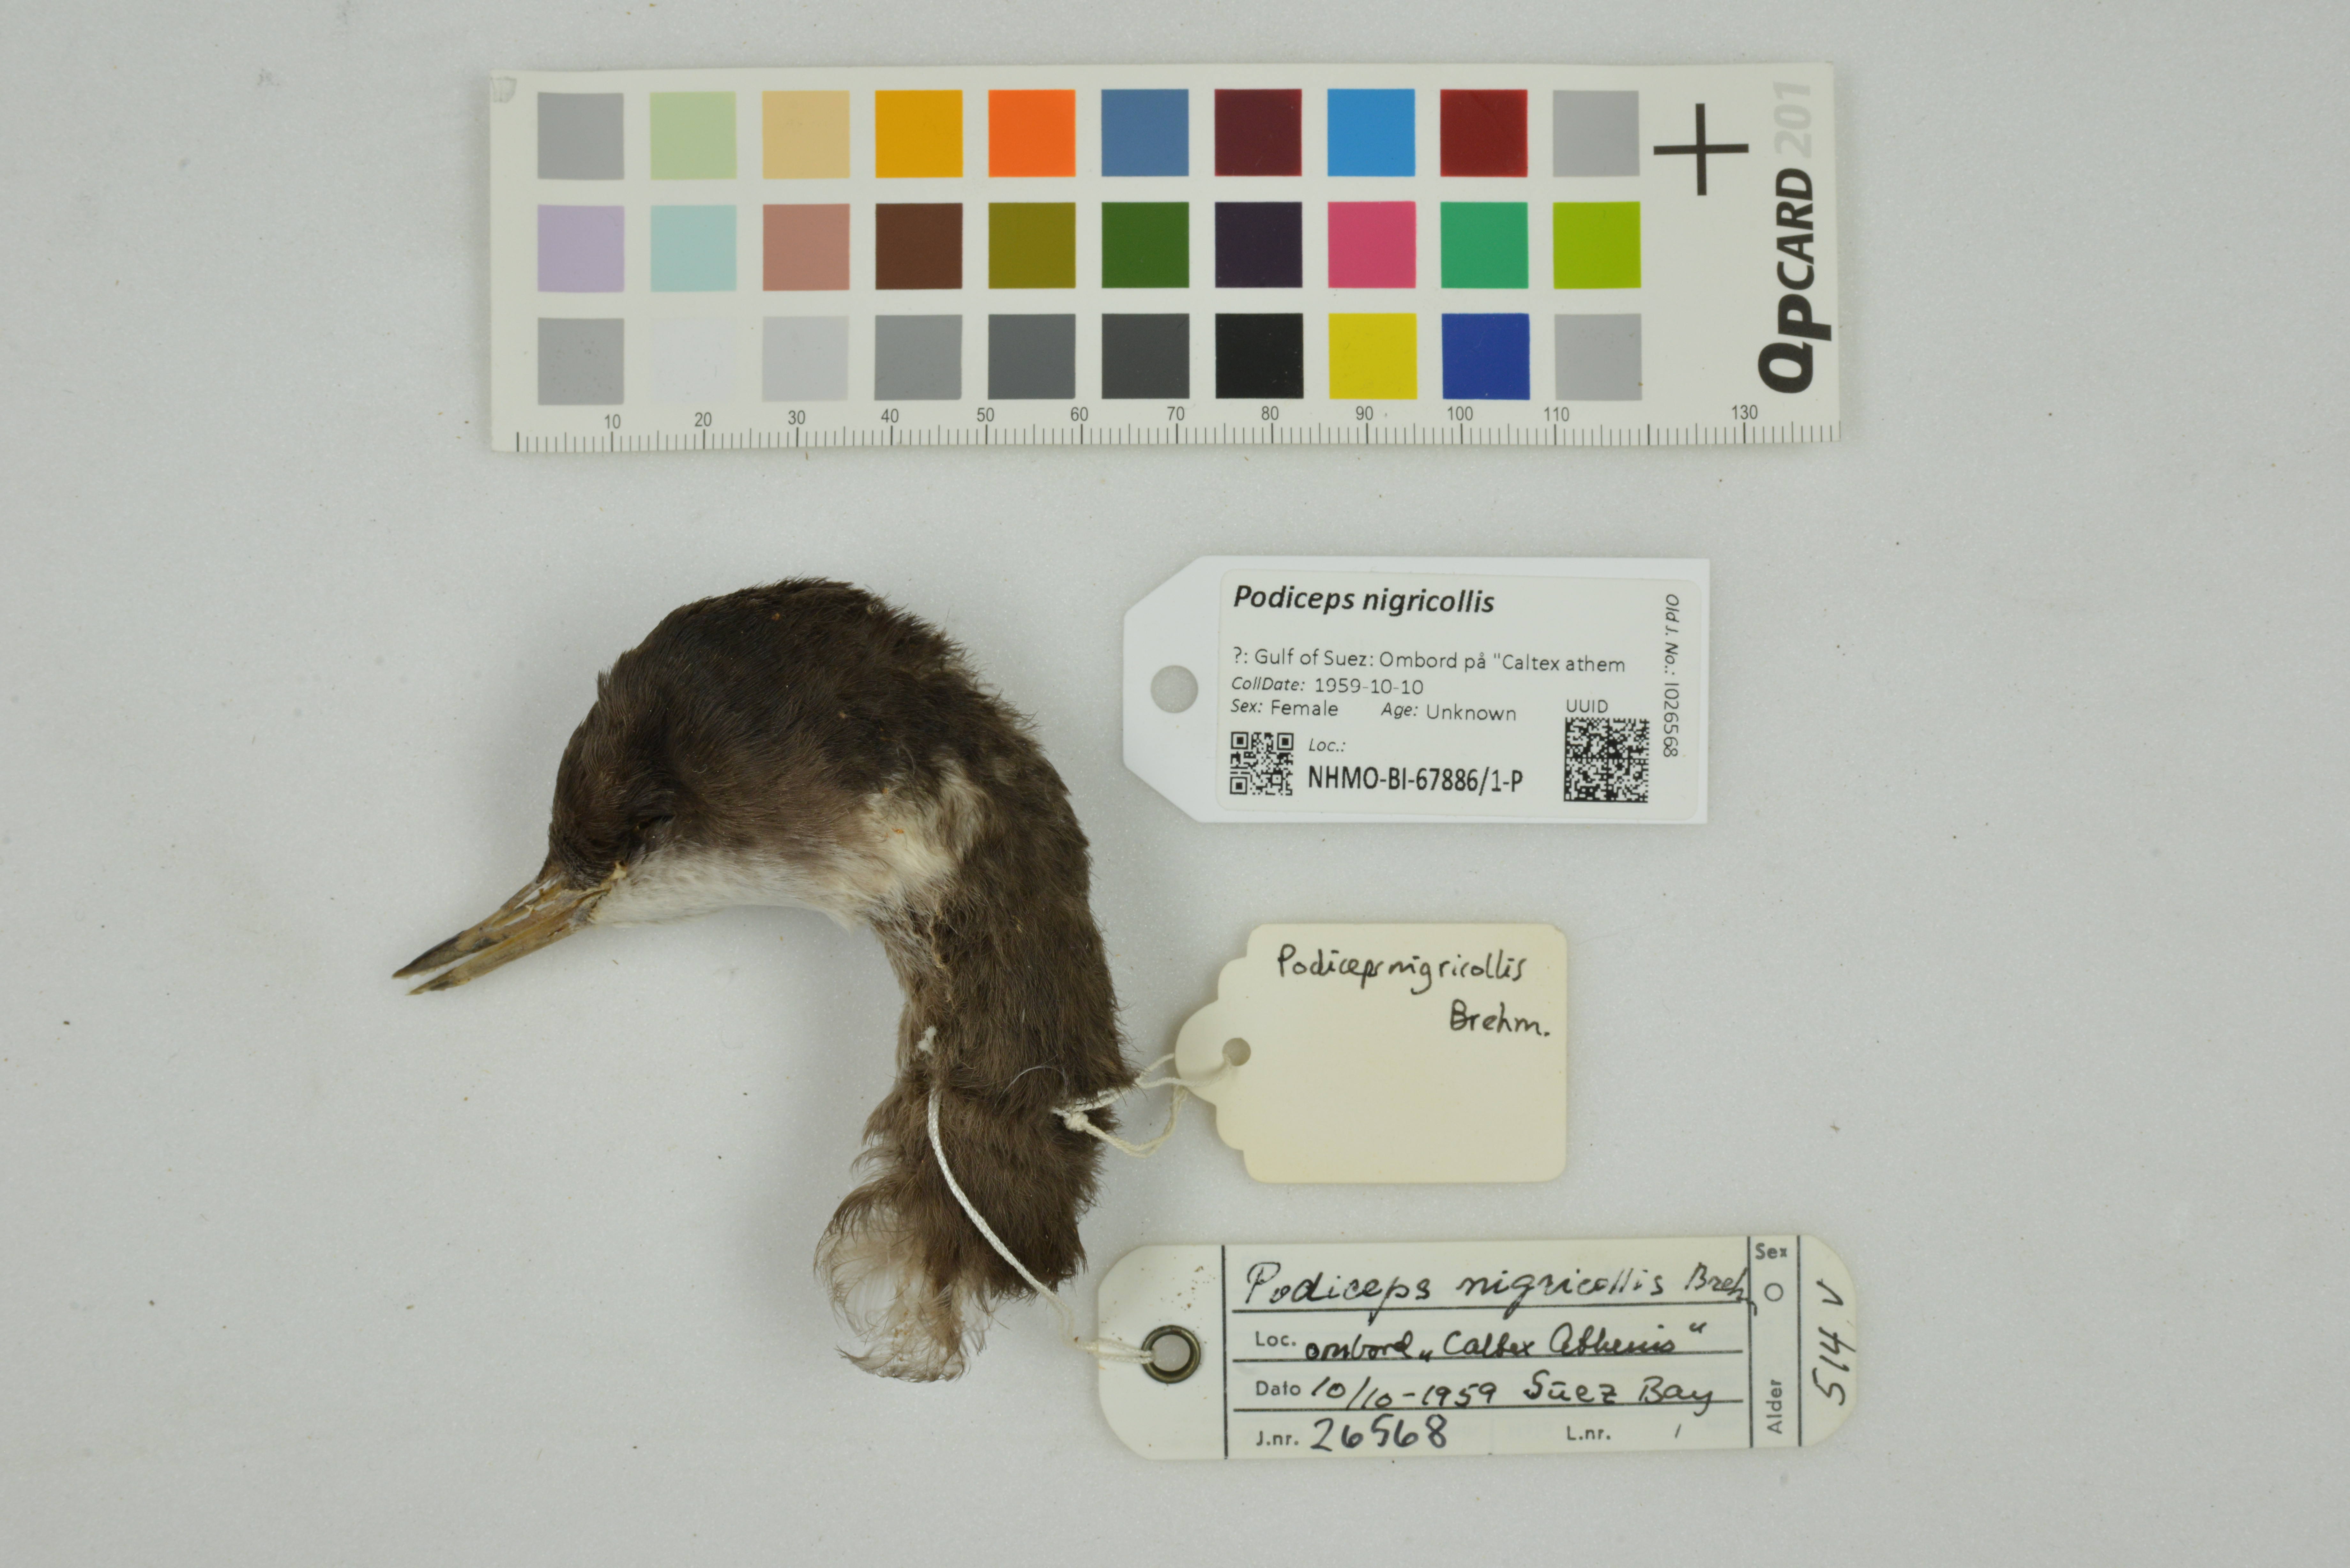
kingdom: Animalia
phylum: Chordata
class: Aves
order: Podicipediformes
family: Podicipedidae
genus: Podiceps
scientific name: Podiceps nigricollis
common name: Black-necked grebe
